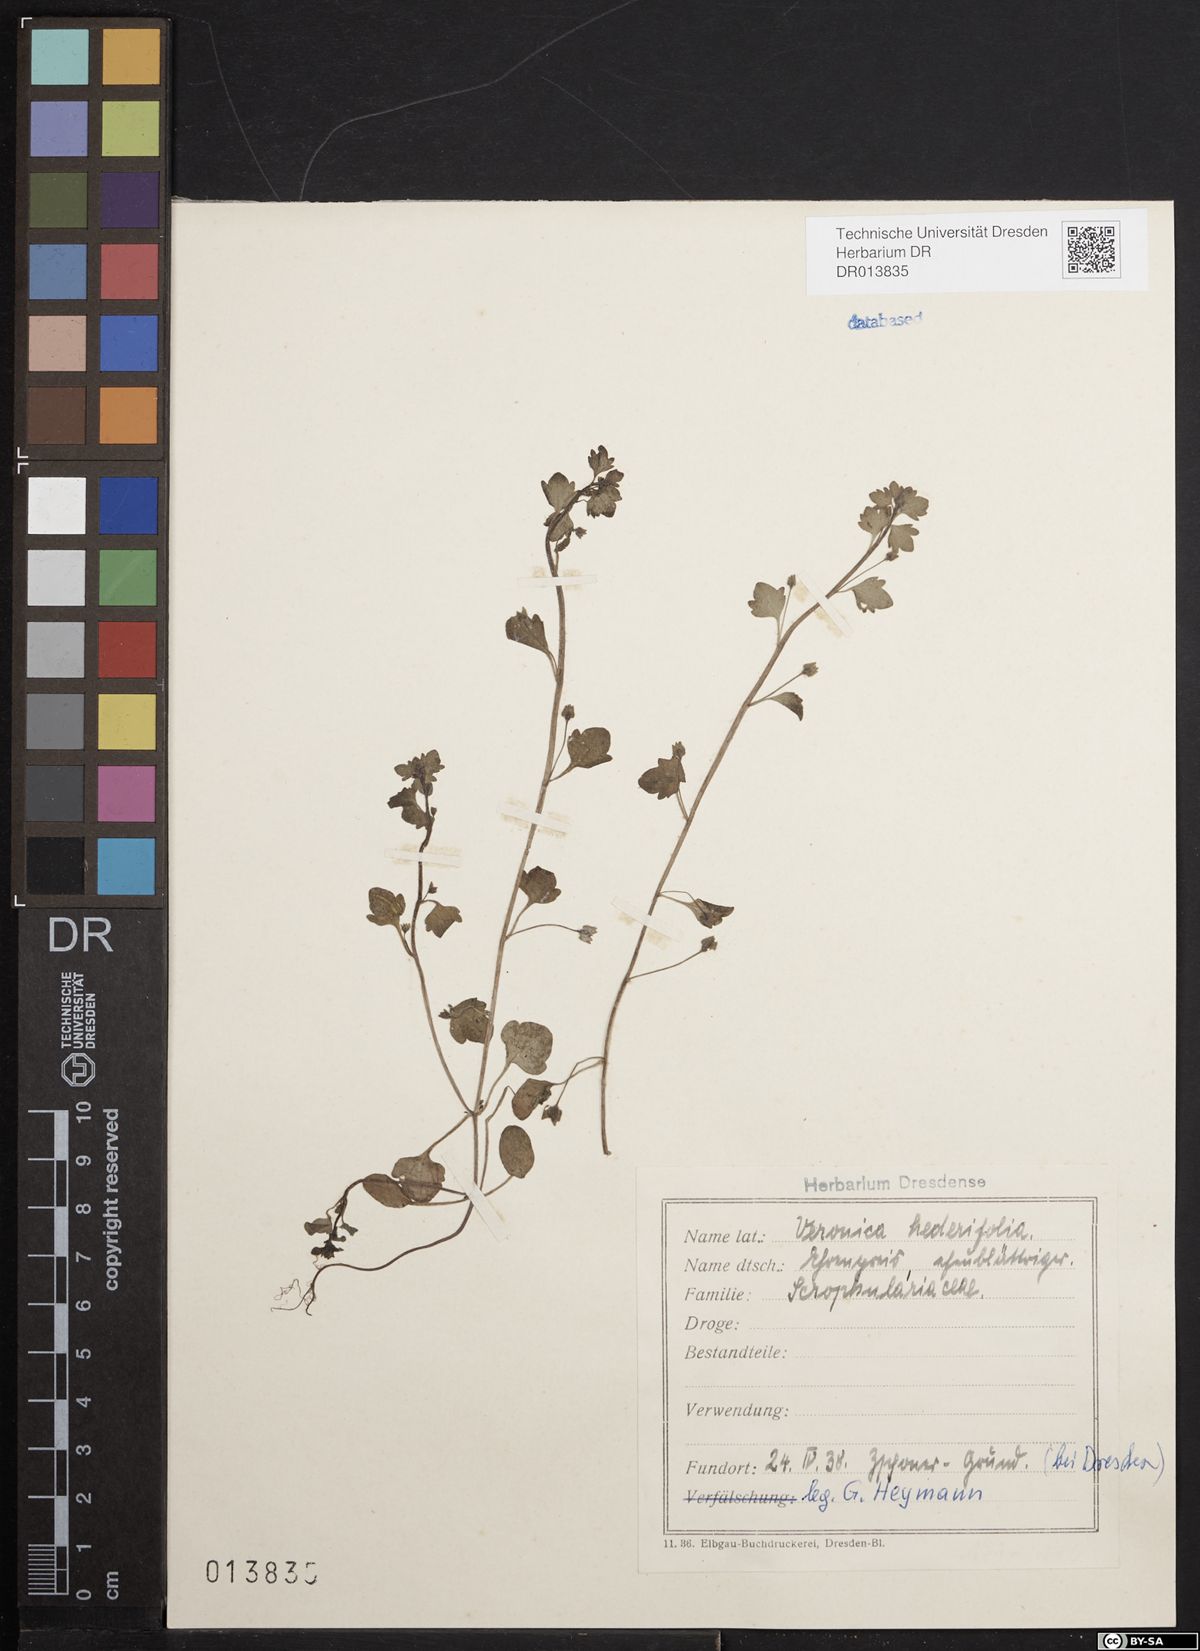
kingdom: Plantae
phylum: Tracheophyta
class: Magnoliopsida
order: Lamiales
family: Plantaginaceae
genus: Veronica
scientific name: Veronica hederifolia
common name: Ivy-leaved speedwell
